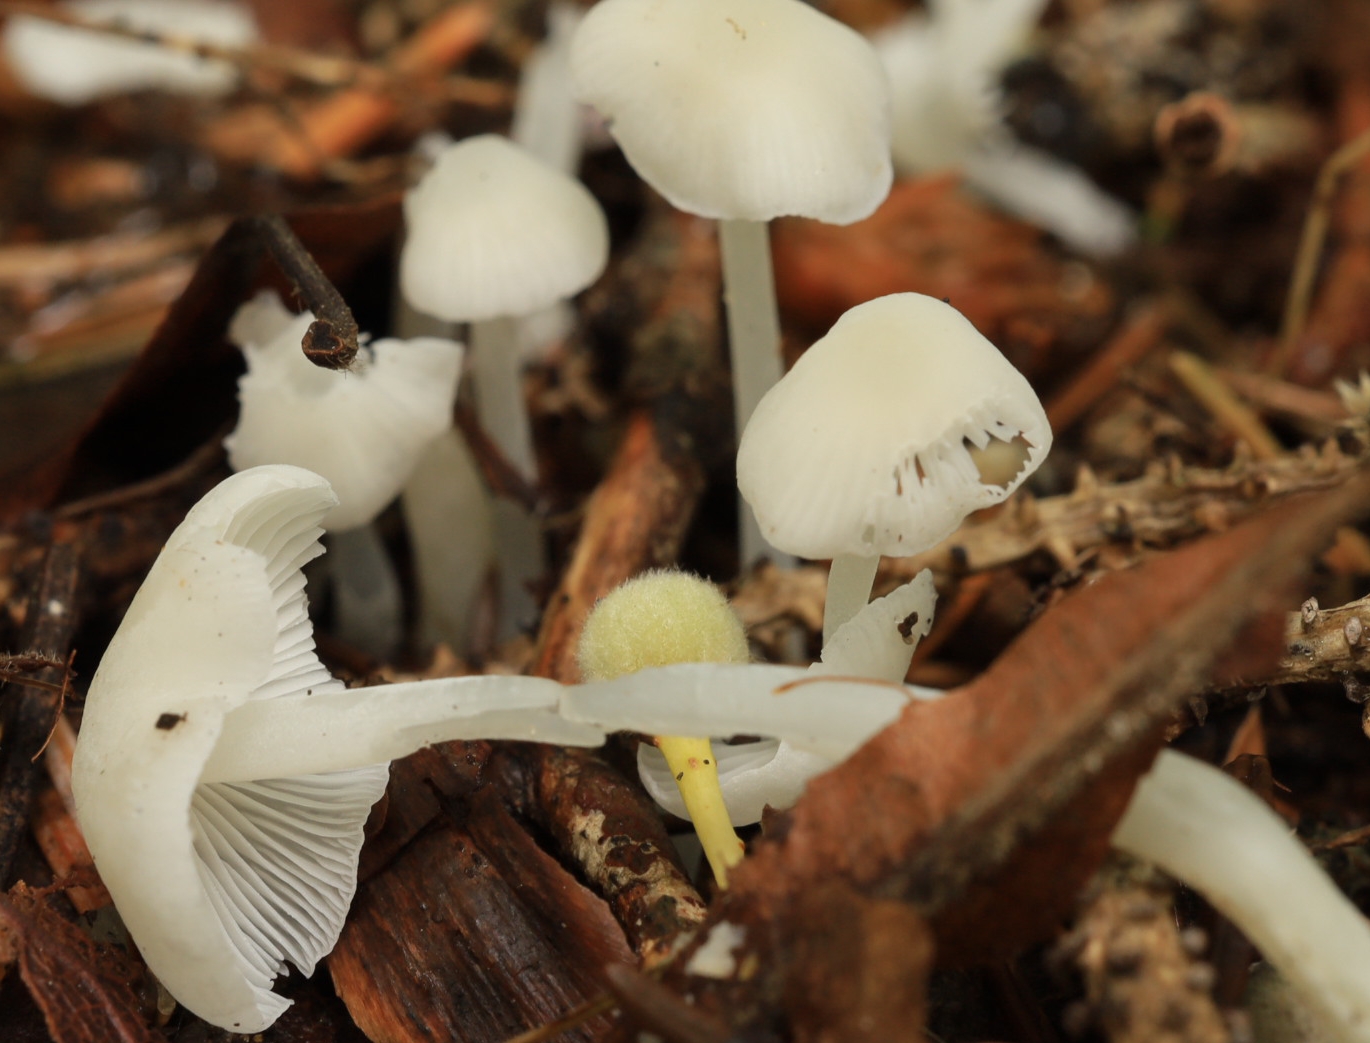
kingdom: Fungi
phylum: Basidiomycota
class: Agaricomycetes
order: Agaricales
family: Mycenaceae
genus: Hemimycena
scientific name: Hemimycena cucullata
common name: tætbladet huesvamp
